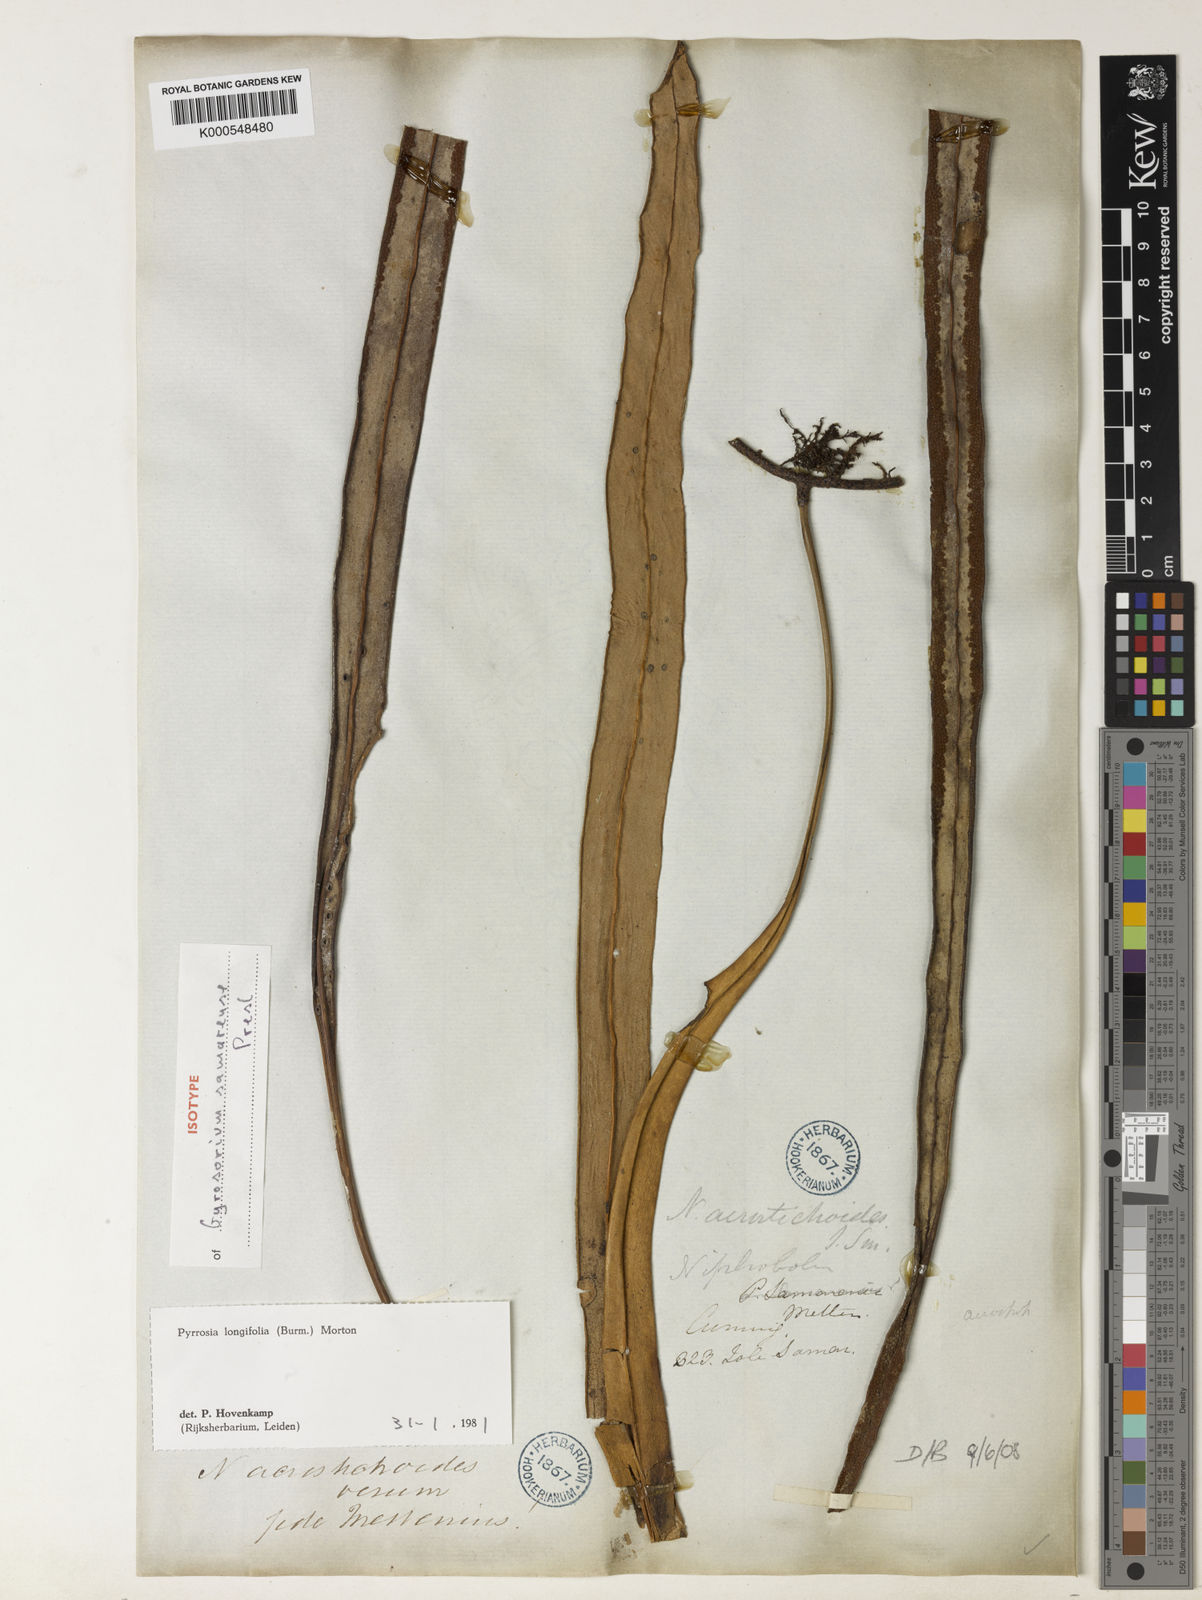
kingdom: Plantae
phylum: Tracheophyta
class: Polypodiopsida
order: Polypodiales
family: Polypodiaceae
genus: Pyrrosia
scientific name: Pyrrosia longifolia
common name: Long-leaved felt fern
